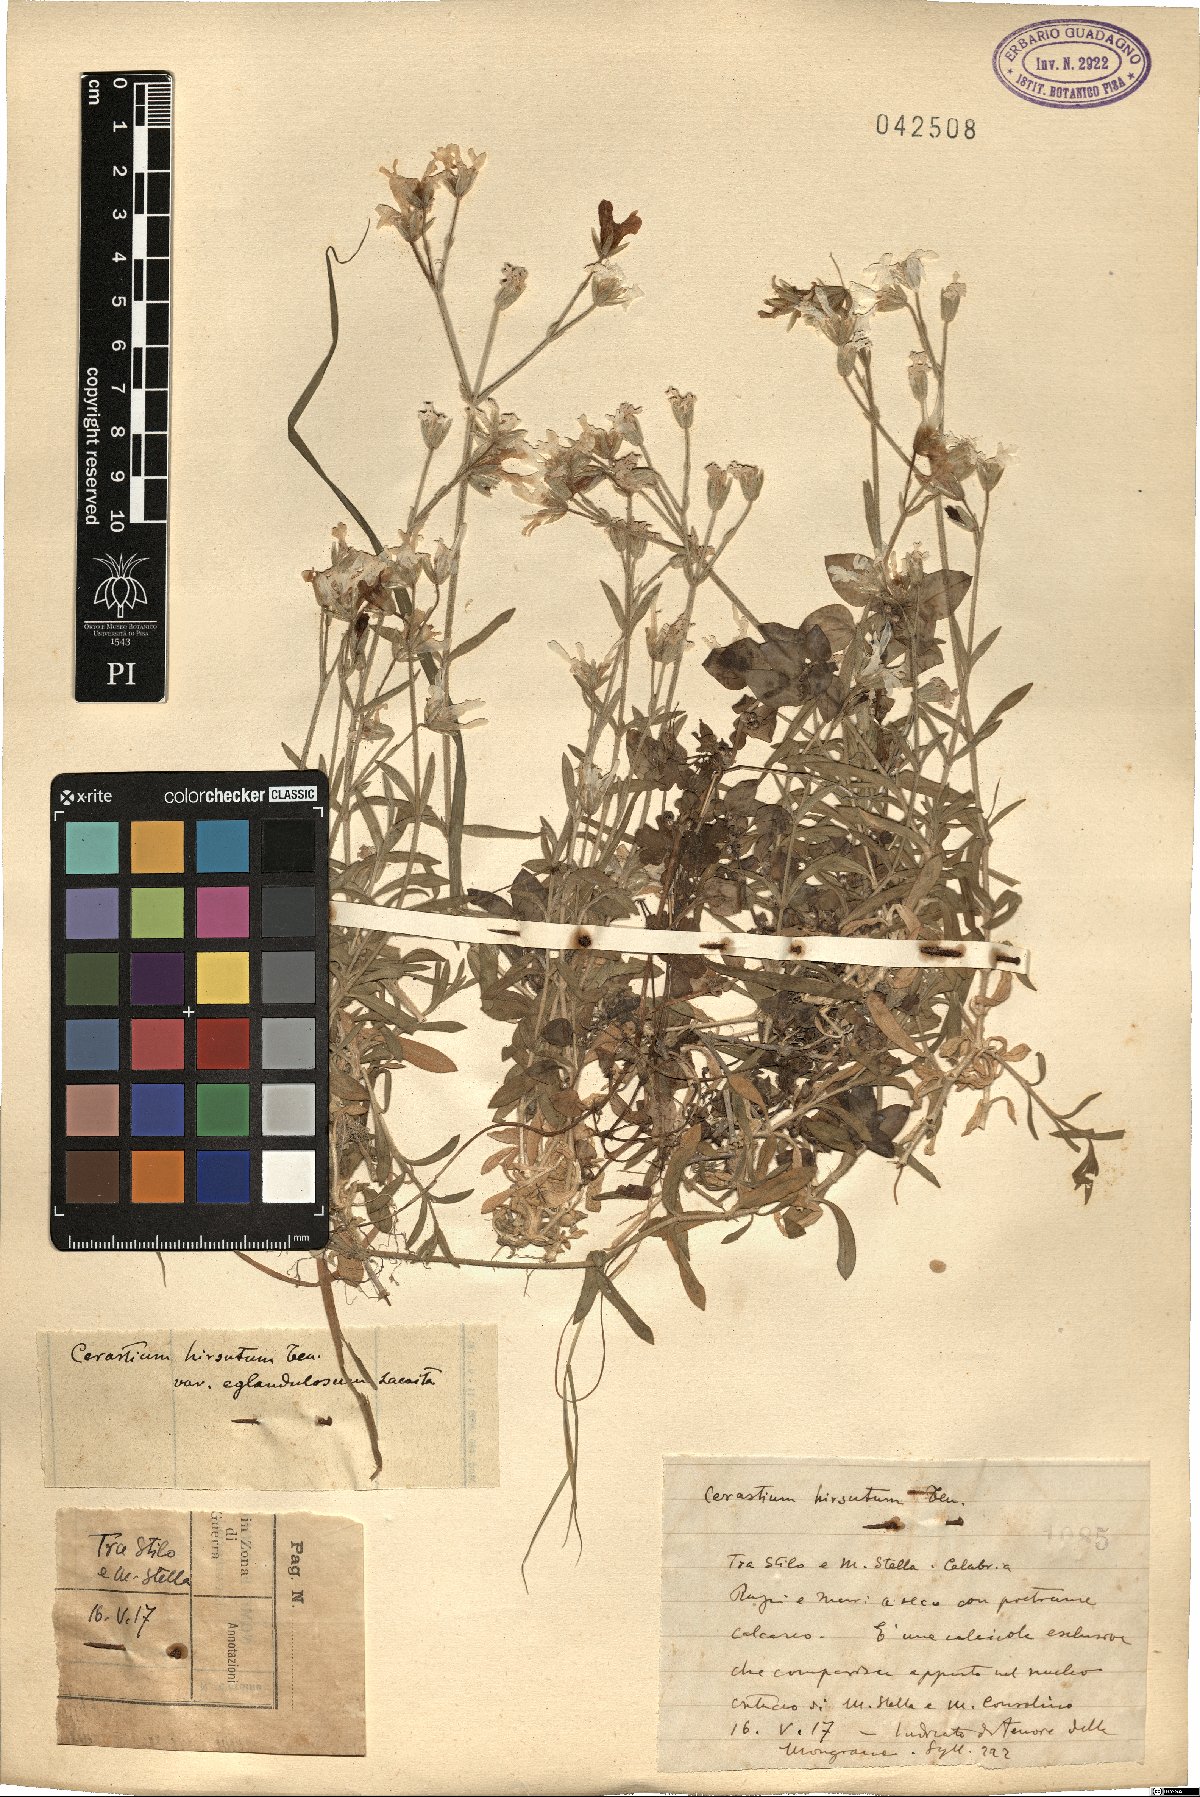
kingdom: Plantae
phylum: Tracheophyta
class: Magnoliopsida
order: Caryophyllales
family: Caryophyllaceae
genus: Cerastium
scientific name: Cerastium
